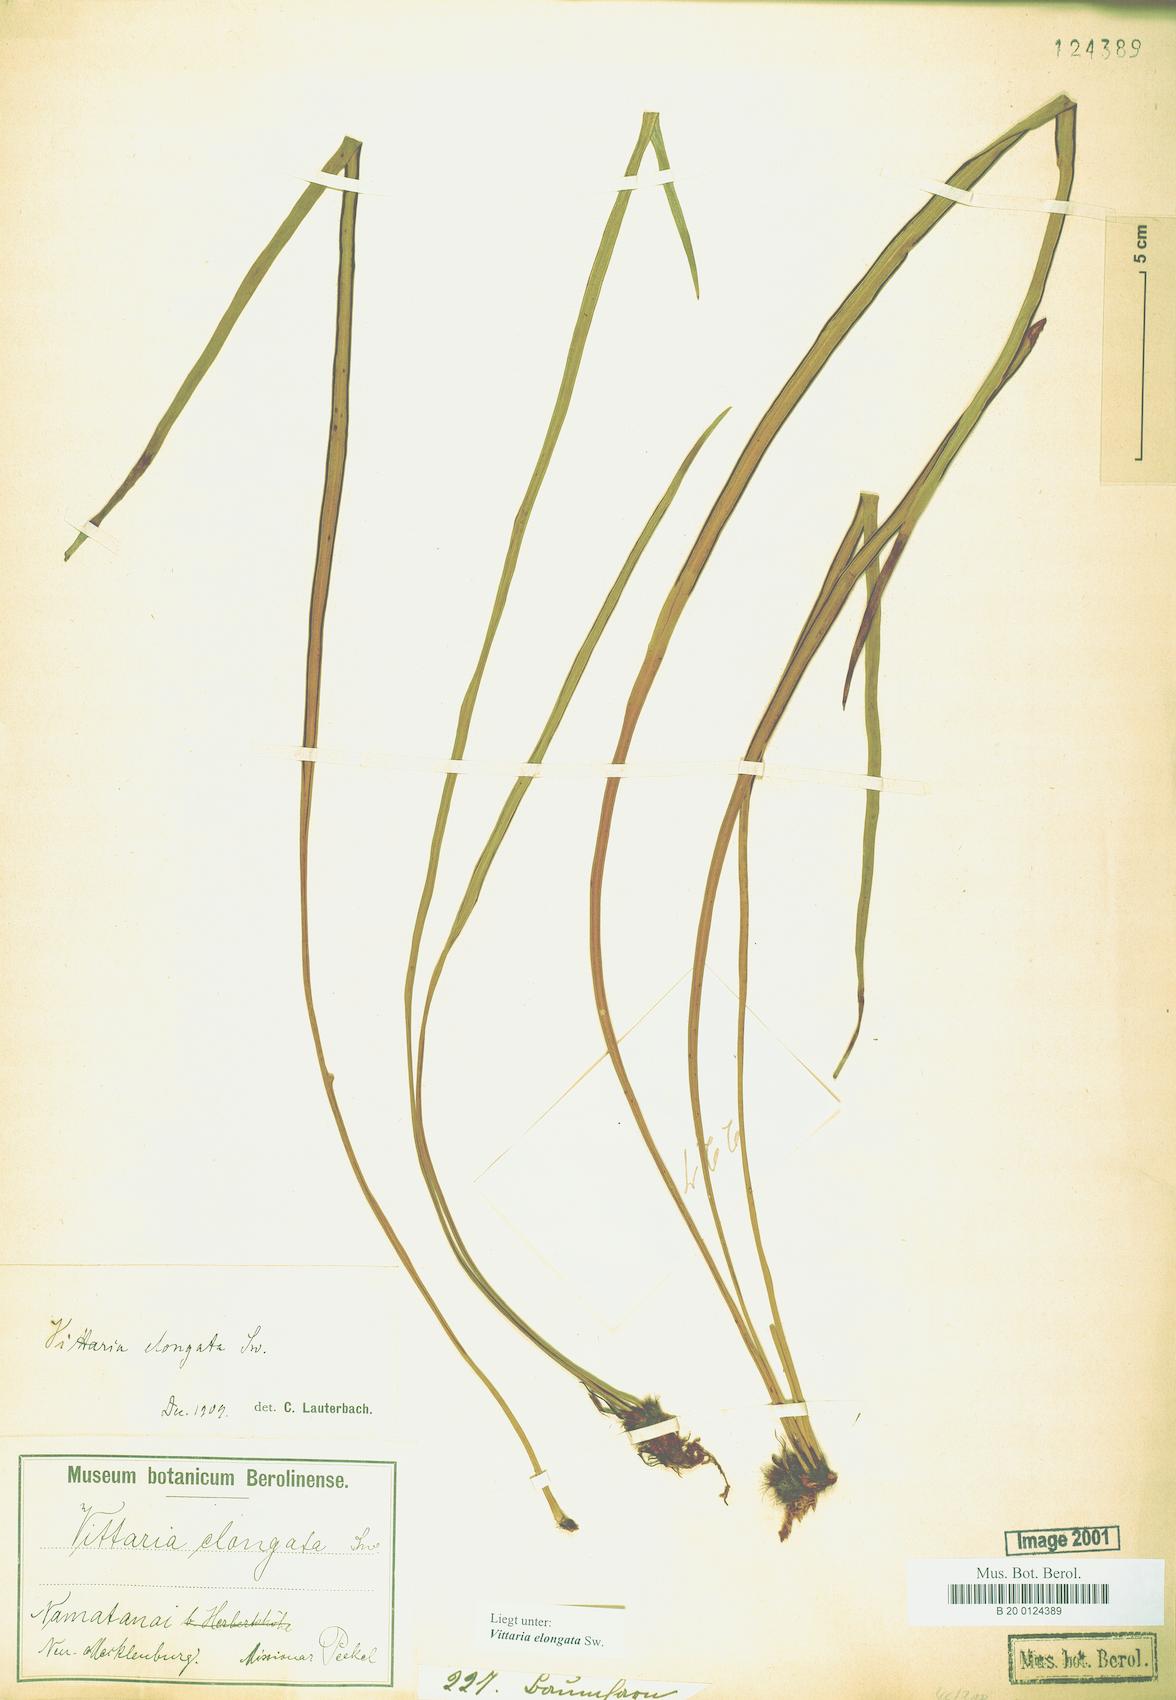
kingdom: Plantae
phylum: Tracheophyta
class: Polypodiopsida
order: Polypodiales
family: Pteridaceae
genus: Haplopteris
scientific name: Haplopteris elongata
